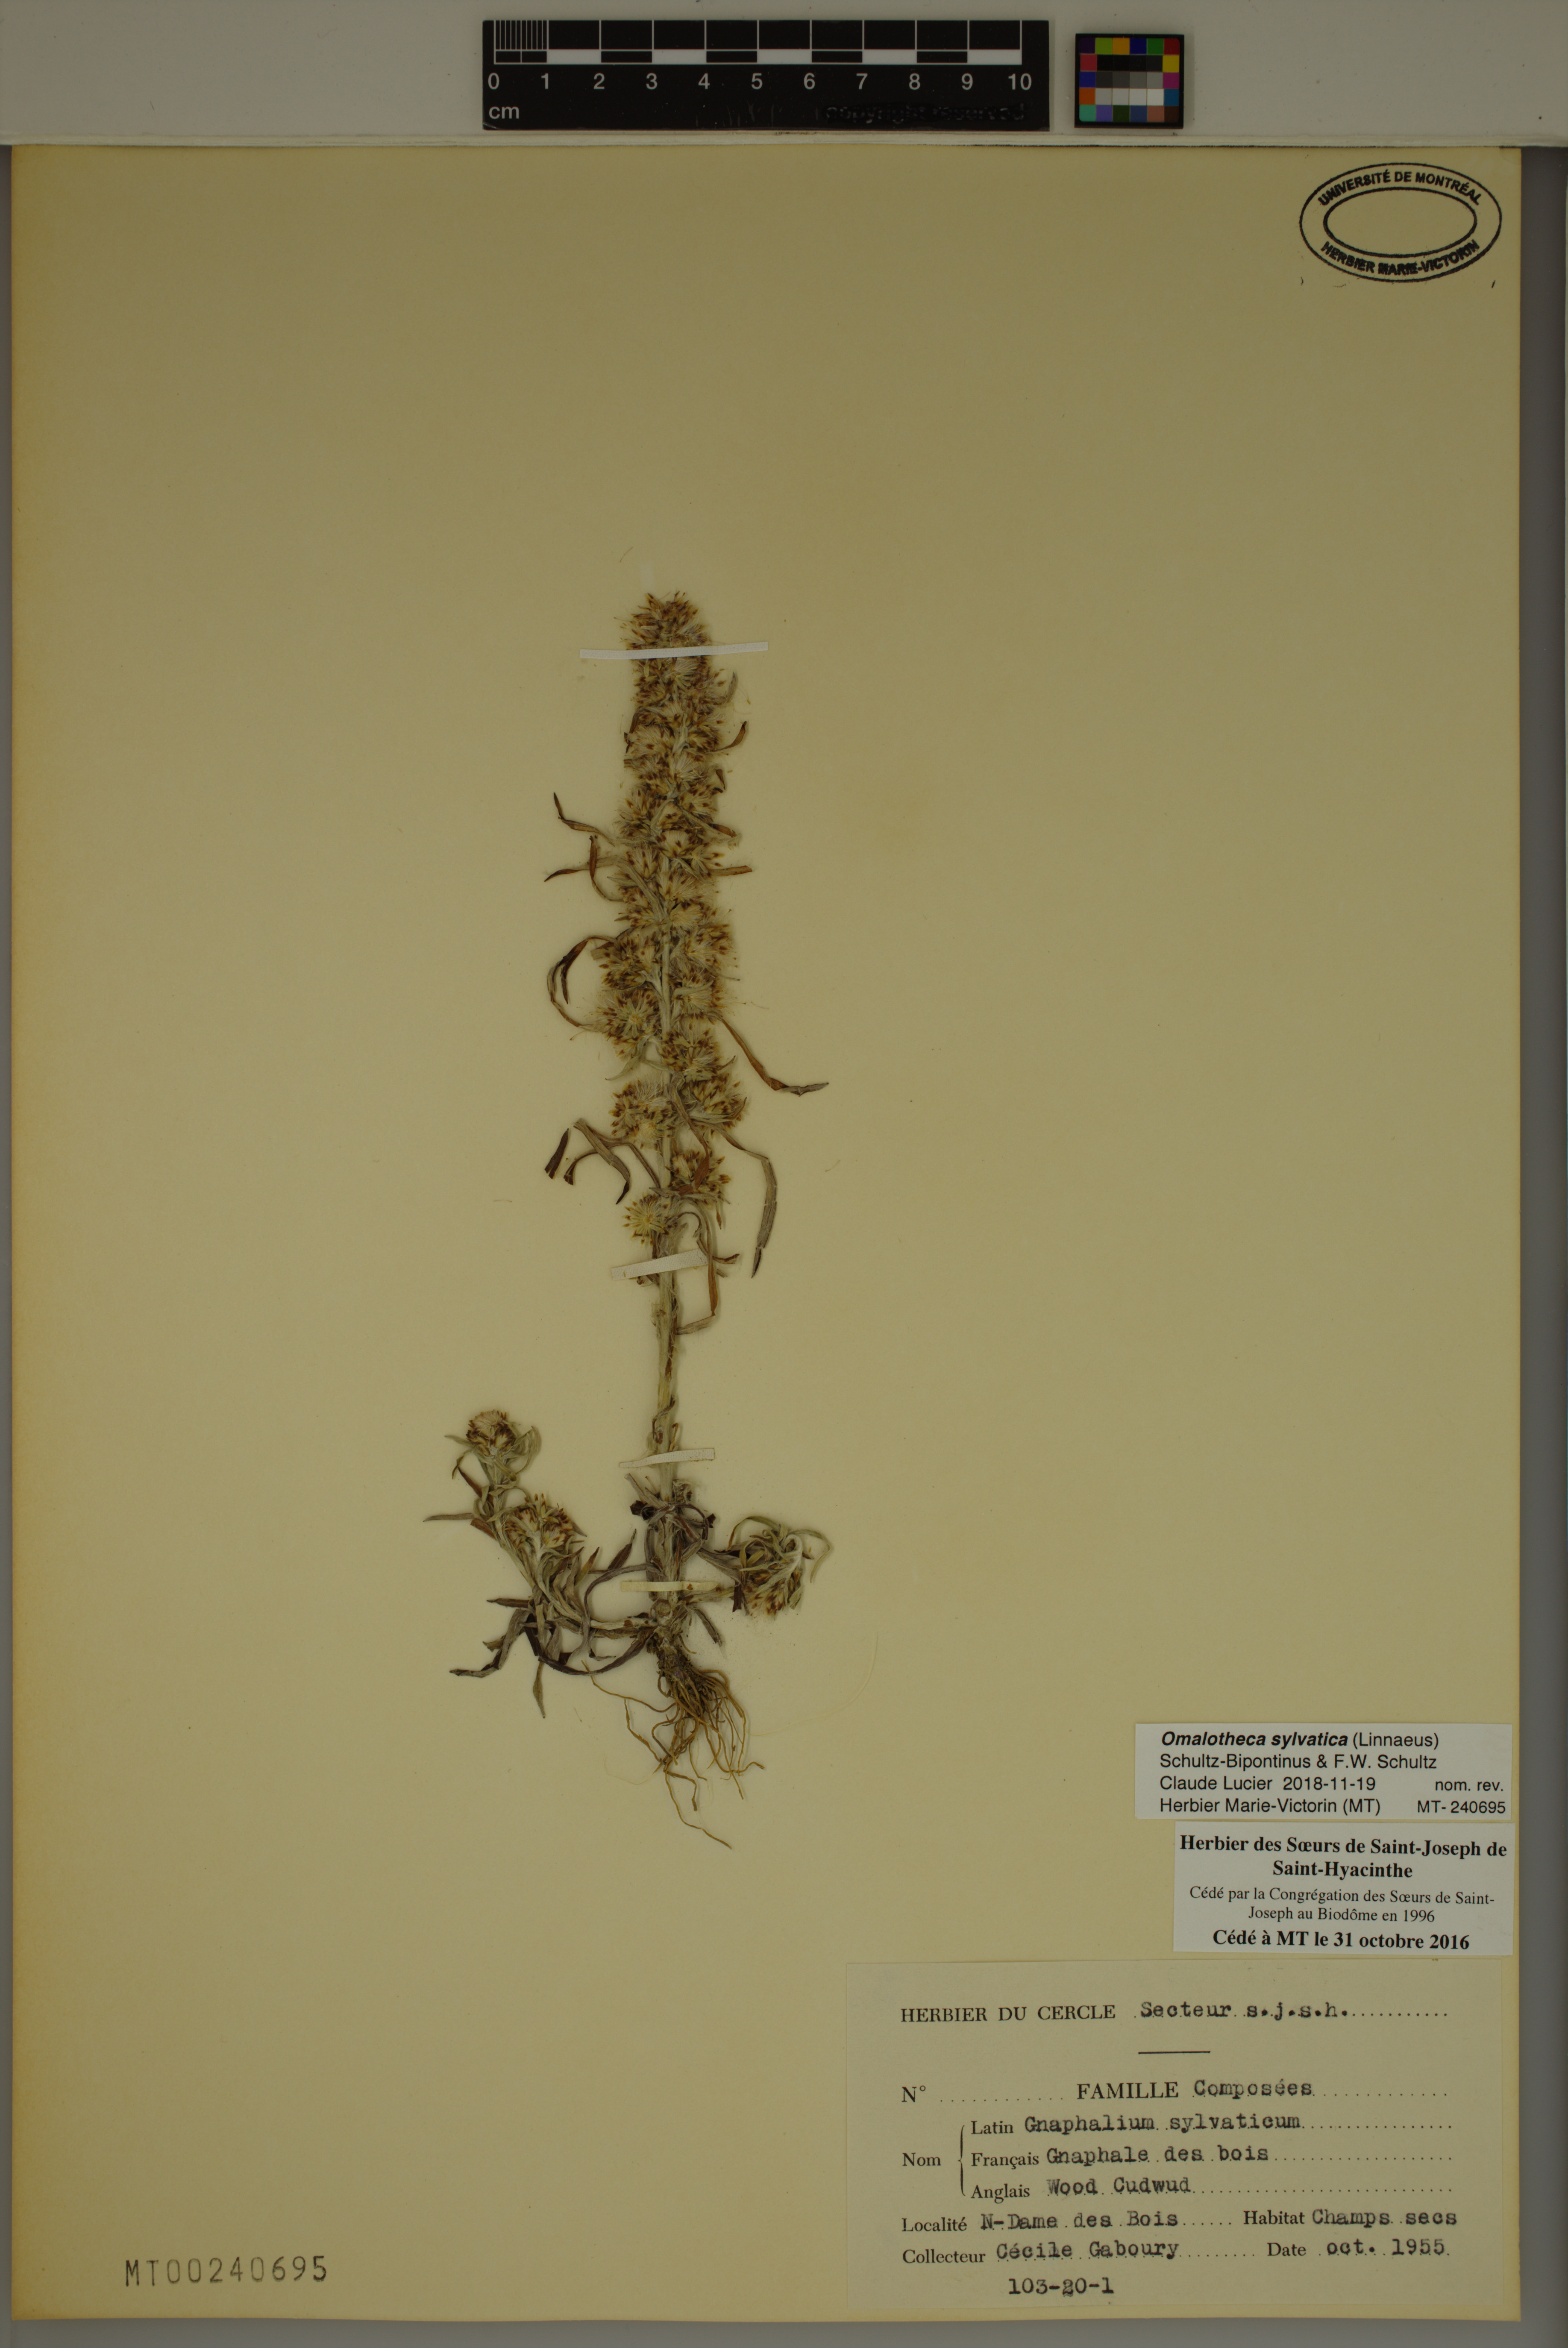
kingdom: Plantae
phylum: Tracheophyta
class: Magnoliopsida
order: Asterales
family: Asteraceae
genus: Omalotheca
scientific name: Omalotheca sylvatica
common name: Heath cudweed
